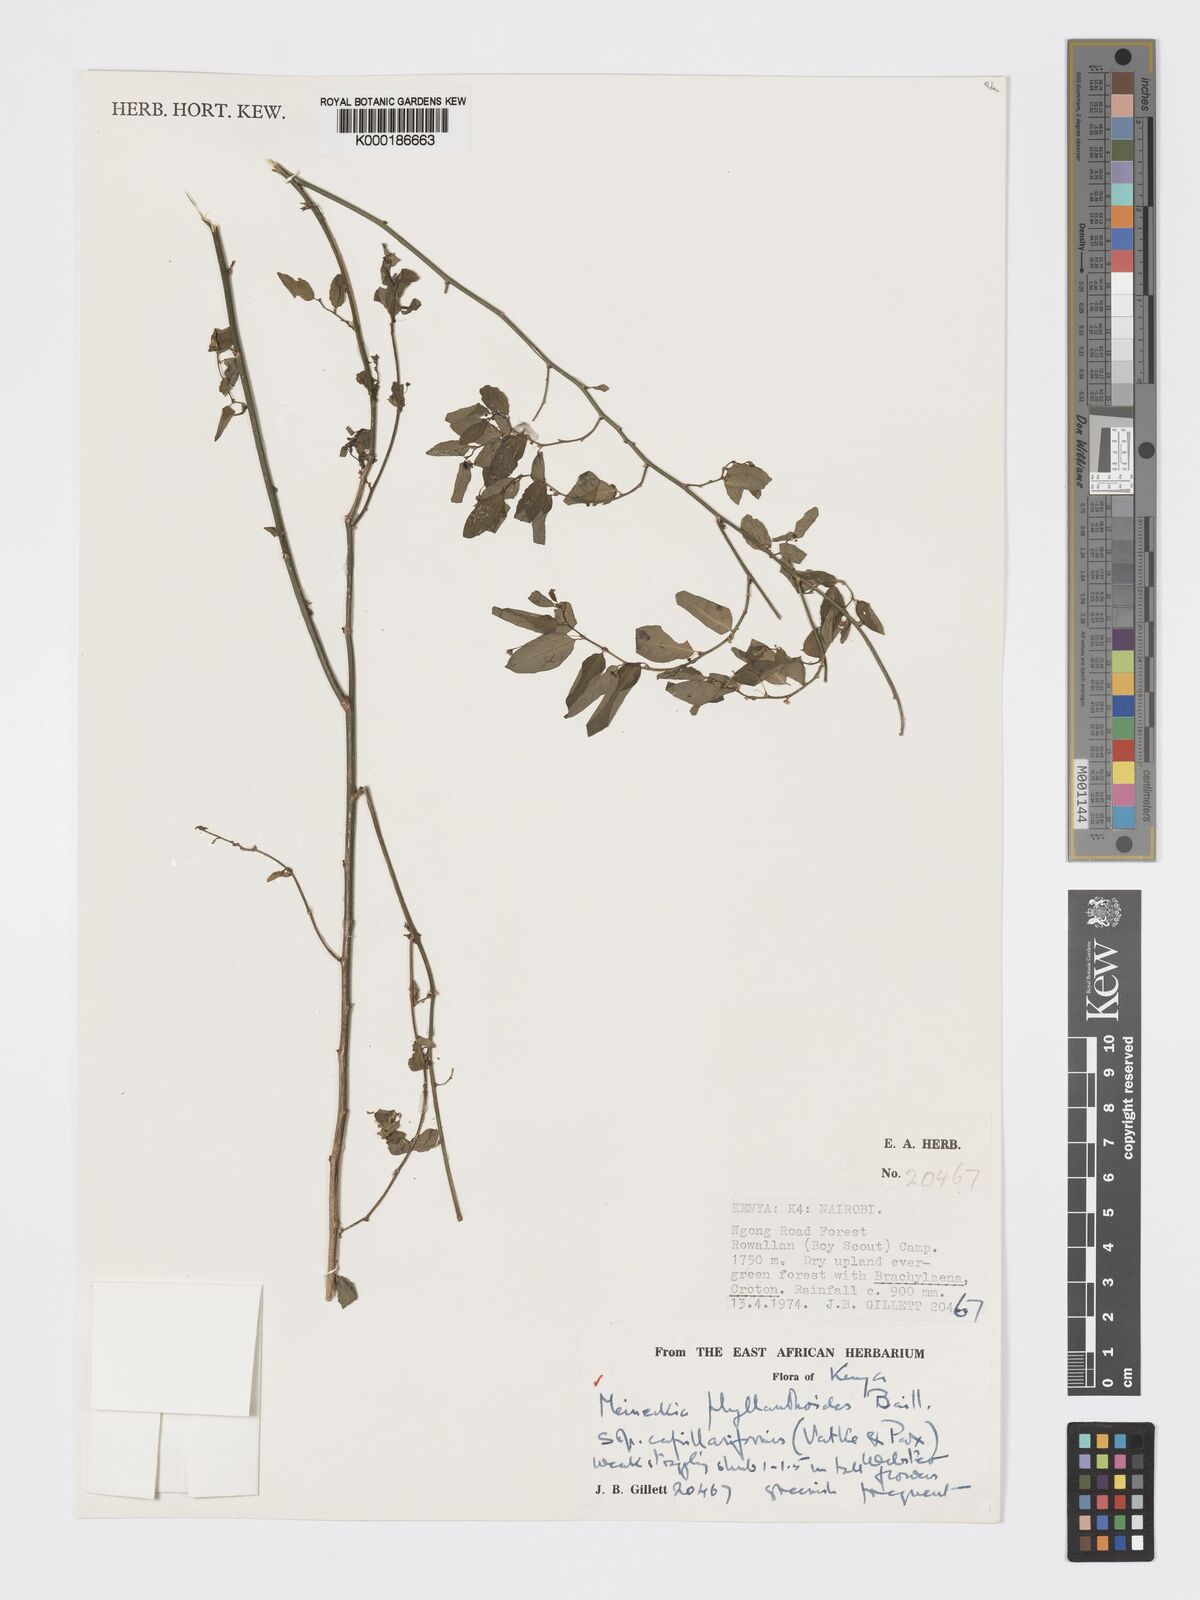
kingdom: Plantae
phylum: Tracheophyta
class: Magnoliopsida
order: Malpighiales
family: Phyllanthaceae
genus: Meineckia
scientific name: Meineckia phyllanthoides
